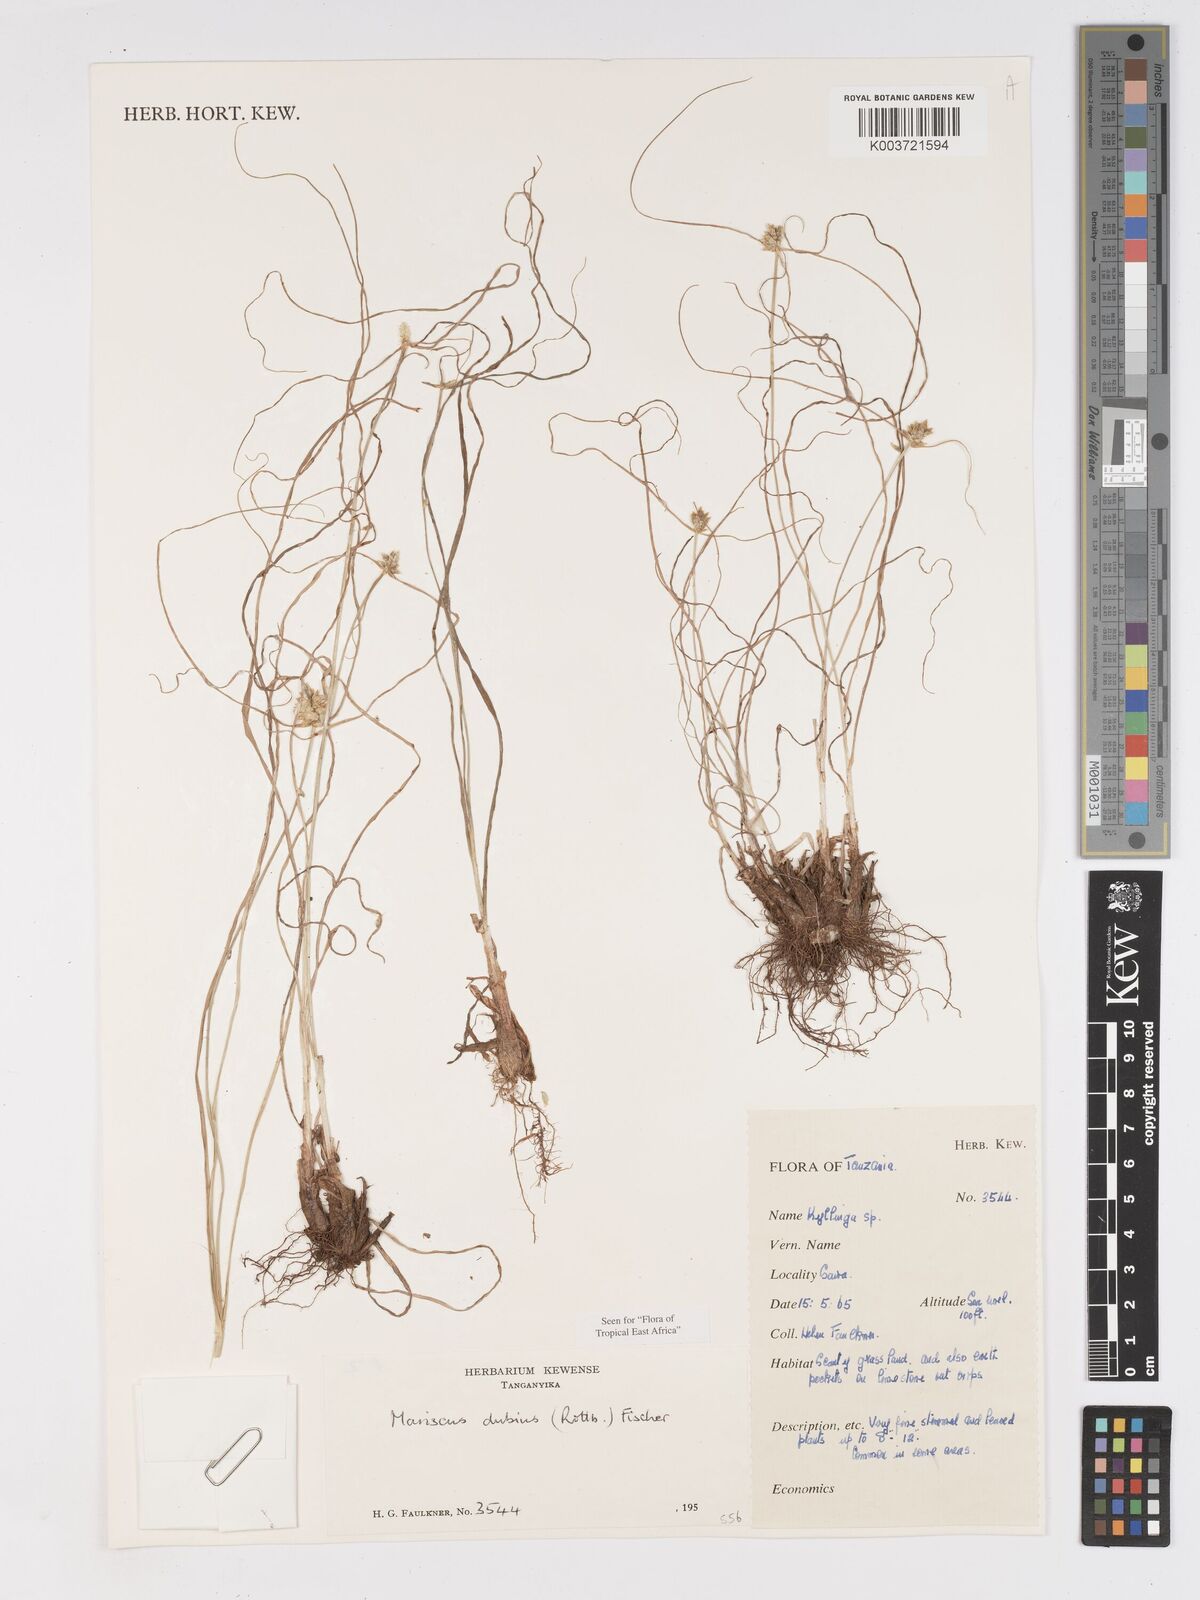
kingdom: Plantae
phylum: Tracheophyta
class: Liliopsida
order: Poales
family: Cyperaceae
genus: Cyperus
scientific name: Cyperus dubius
